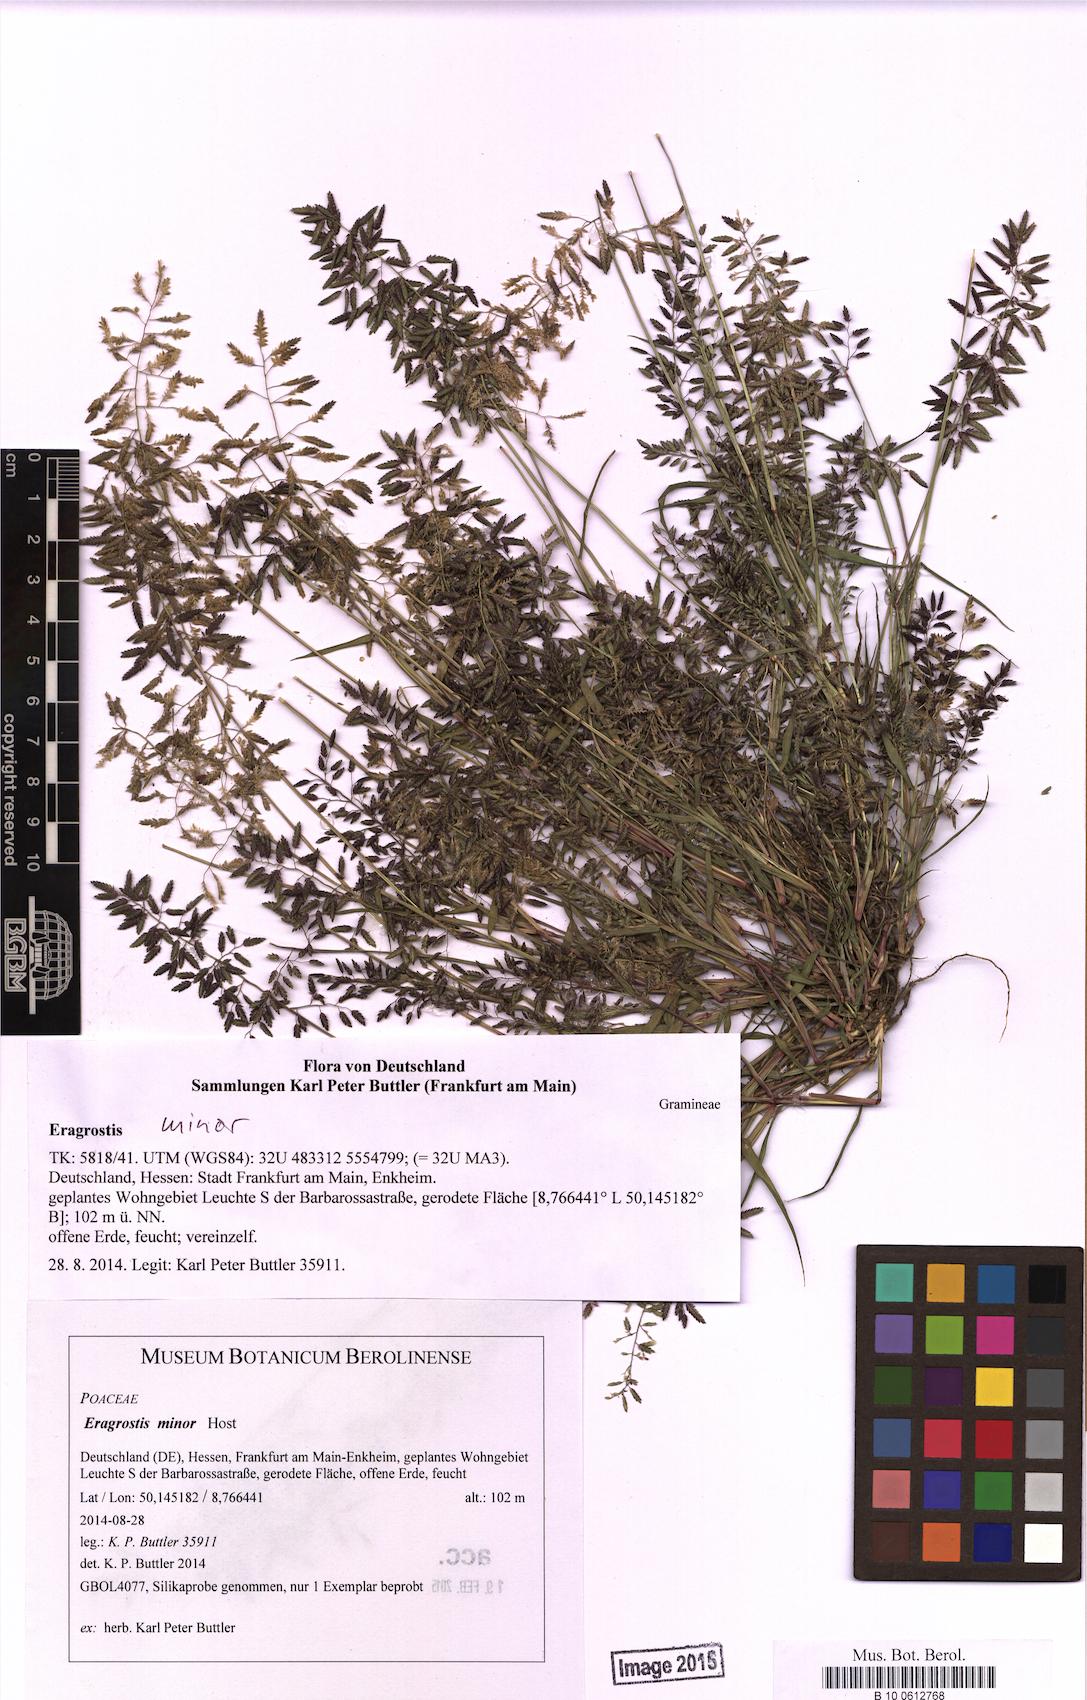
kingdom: Plantae
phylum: Tracheophyta
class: Liliopsida
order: Poales
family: Poaceae
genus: Eragrostis
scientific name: Eragrostis minor
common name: Small love-grass
